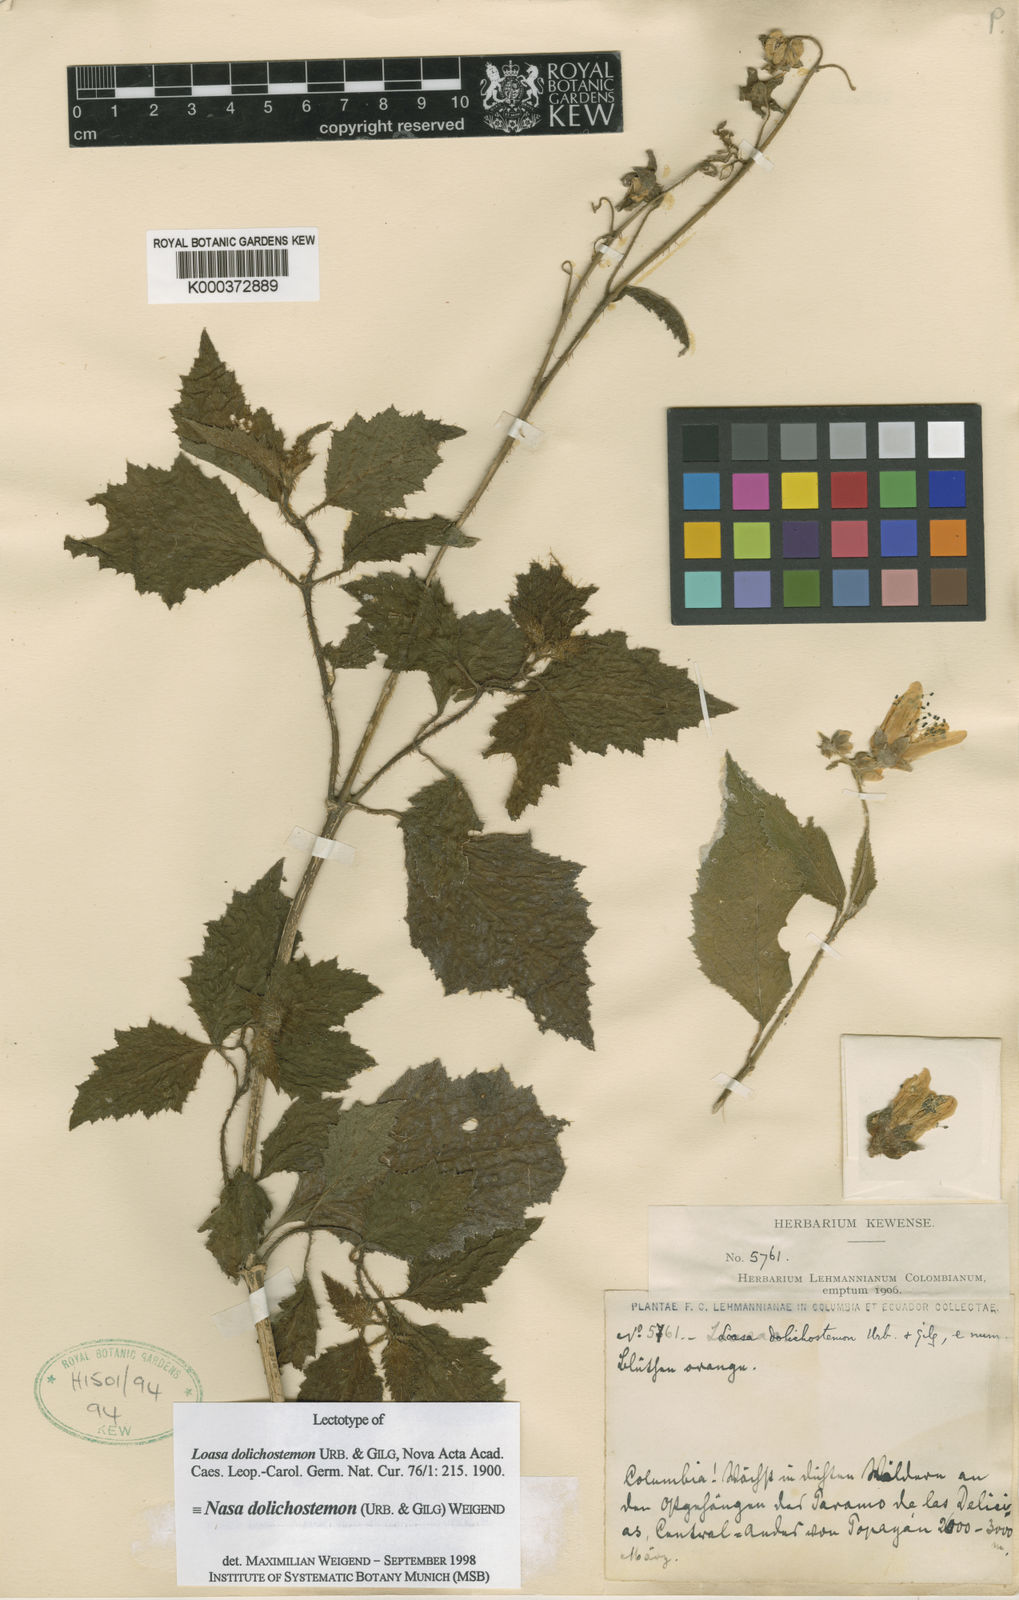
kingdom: Plantae
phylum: Tracheophyta
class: Magnoliopsida
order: Cornales
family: Loasaceae
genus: Nasa
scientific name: Nasa dolichostemon
